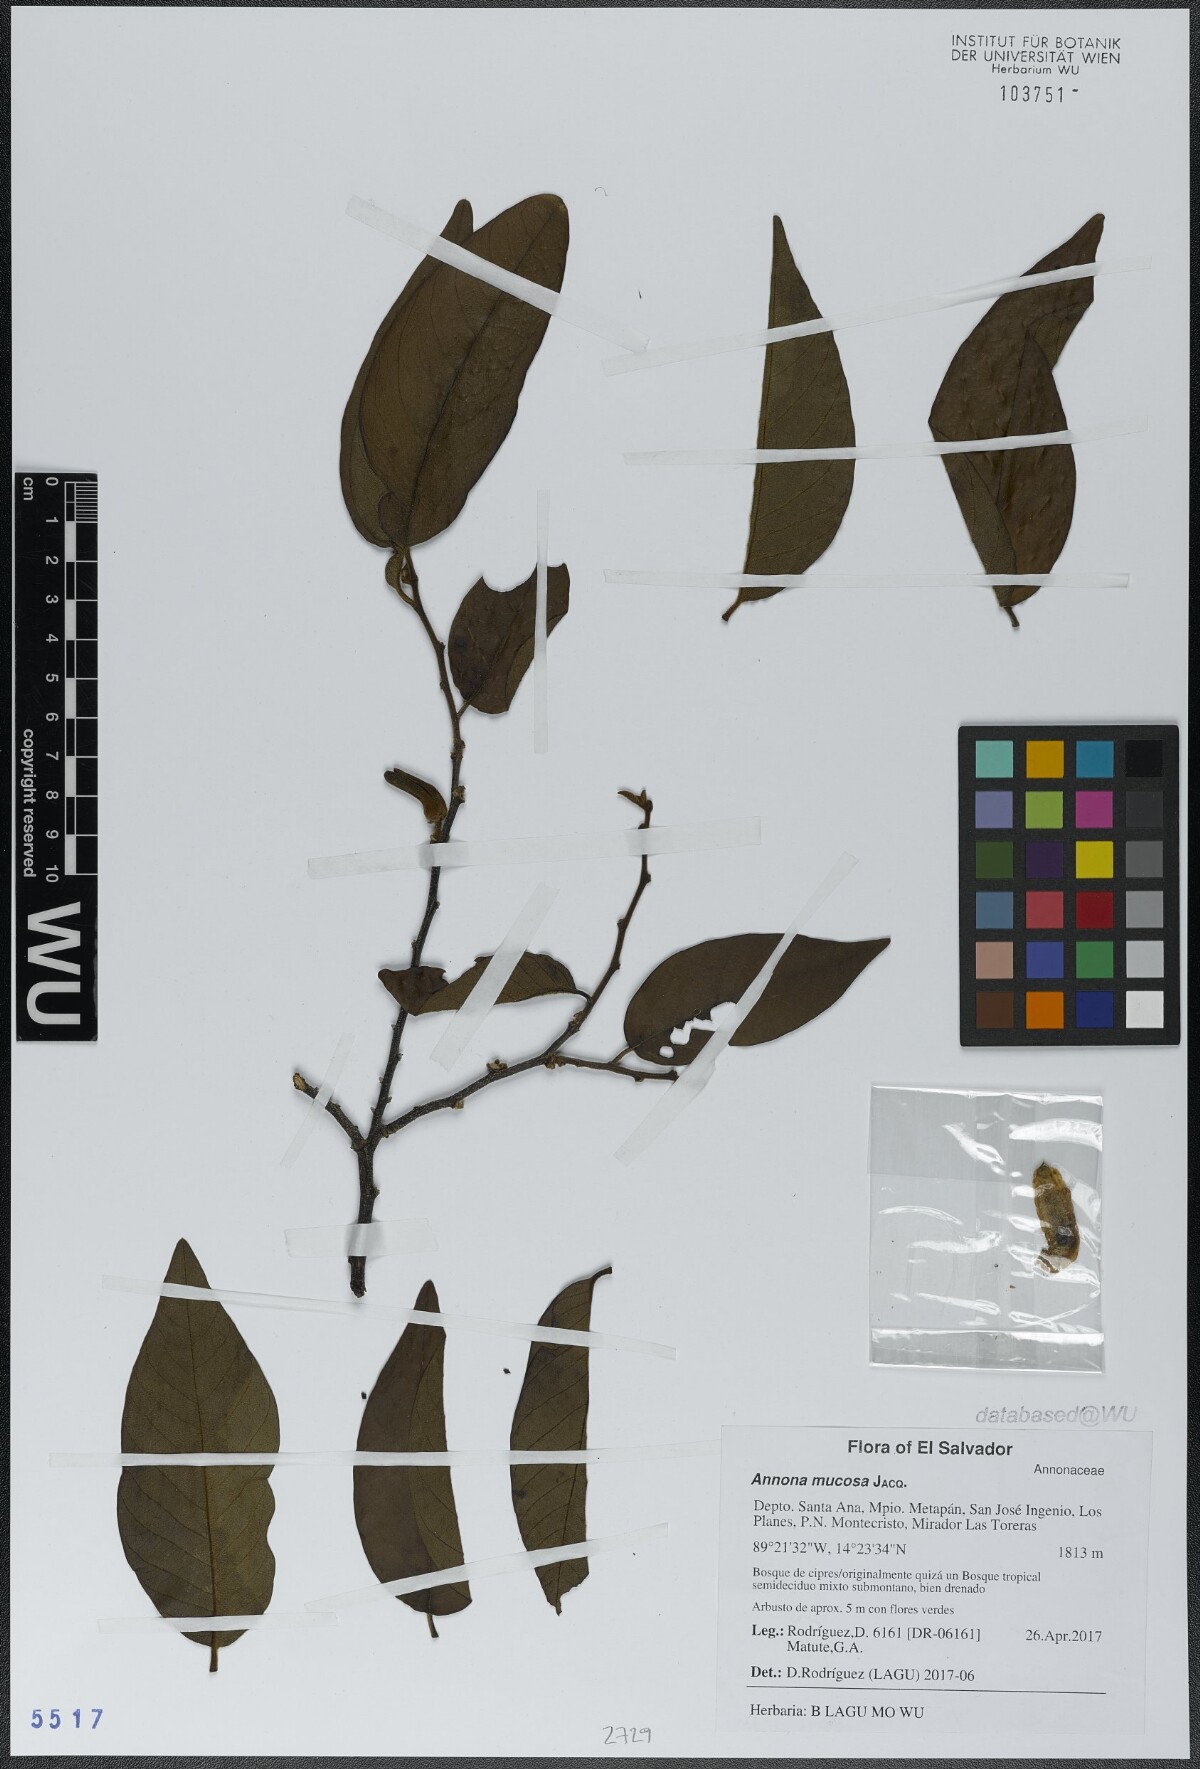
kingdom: Plantae
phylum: Tracheophyta
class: Magnoliopsida
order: Magnoliales
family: Annonaceae
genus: Annona
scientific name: Annona mucosa
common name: Sugar apple
